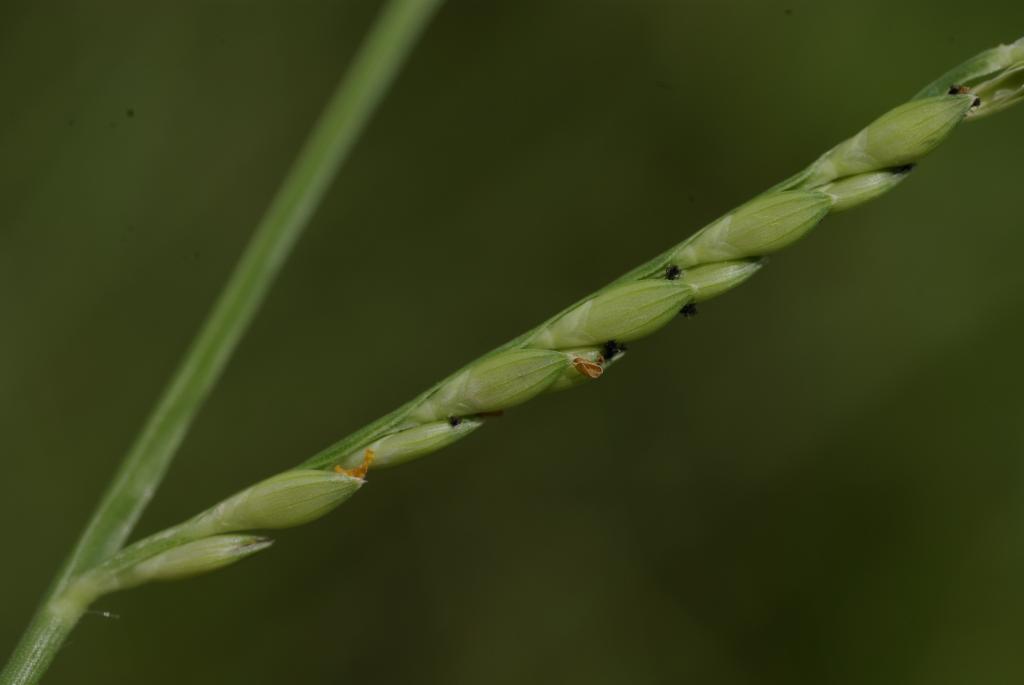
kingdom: Plantae
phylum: Tracheophyta
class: Liliopsida
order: Poales
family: Poaceae
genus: Urochloa
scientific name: Urochloa subquadripara
